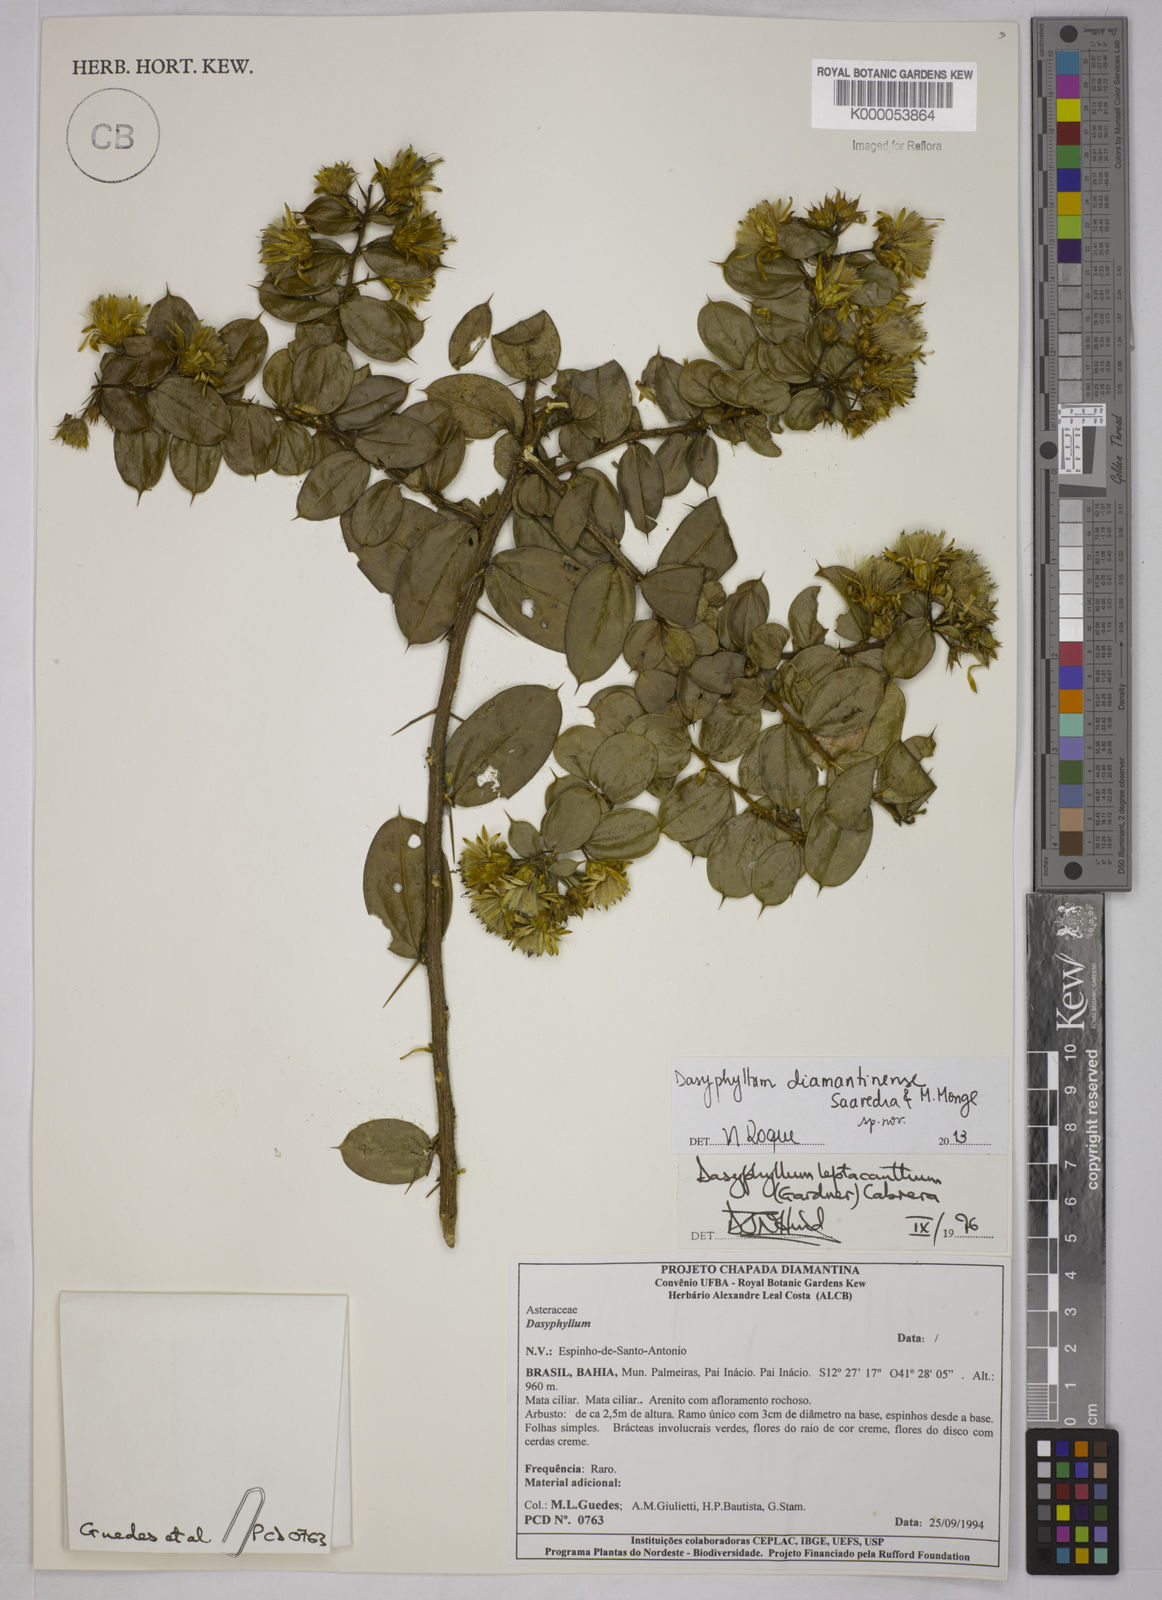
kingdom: Plantae
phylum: Tracheophyta
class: Magnoliopsida
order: Asterales
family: Asteraceae
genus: Dasyphyllum
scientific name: Dasyphyllum leptacanthum
